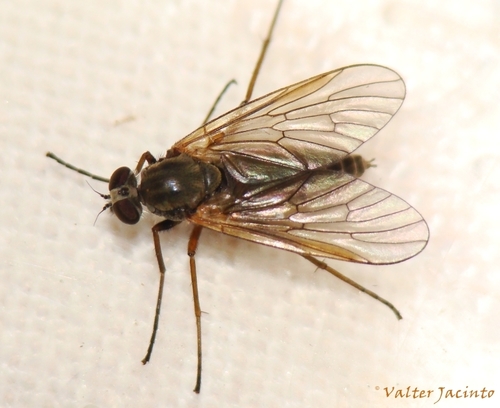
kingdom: Animalia
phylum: Arthropoda
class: Insecta
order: Diptera
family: Rhagionidae
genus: Rhagio
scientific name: Rhagio
